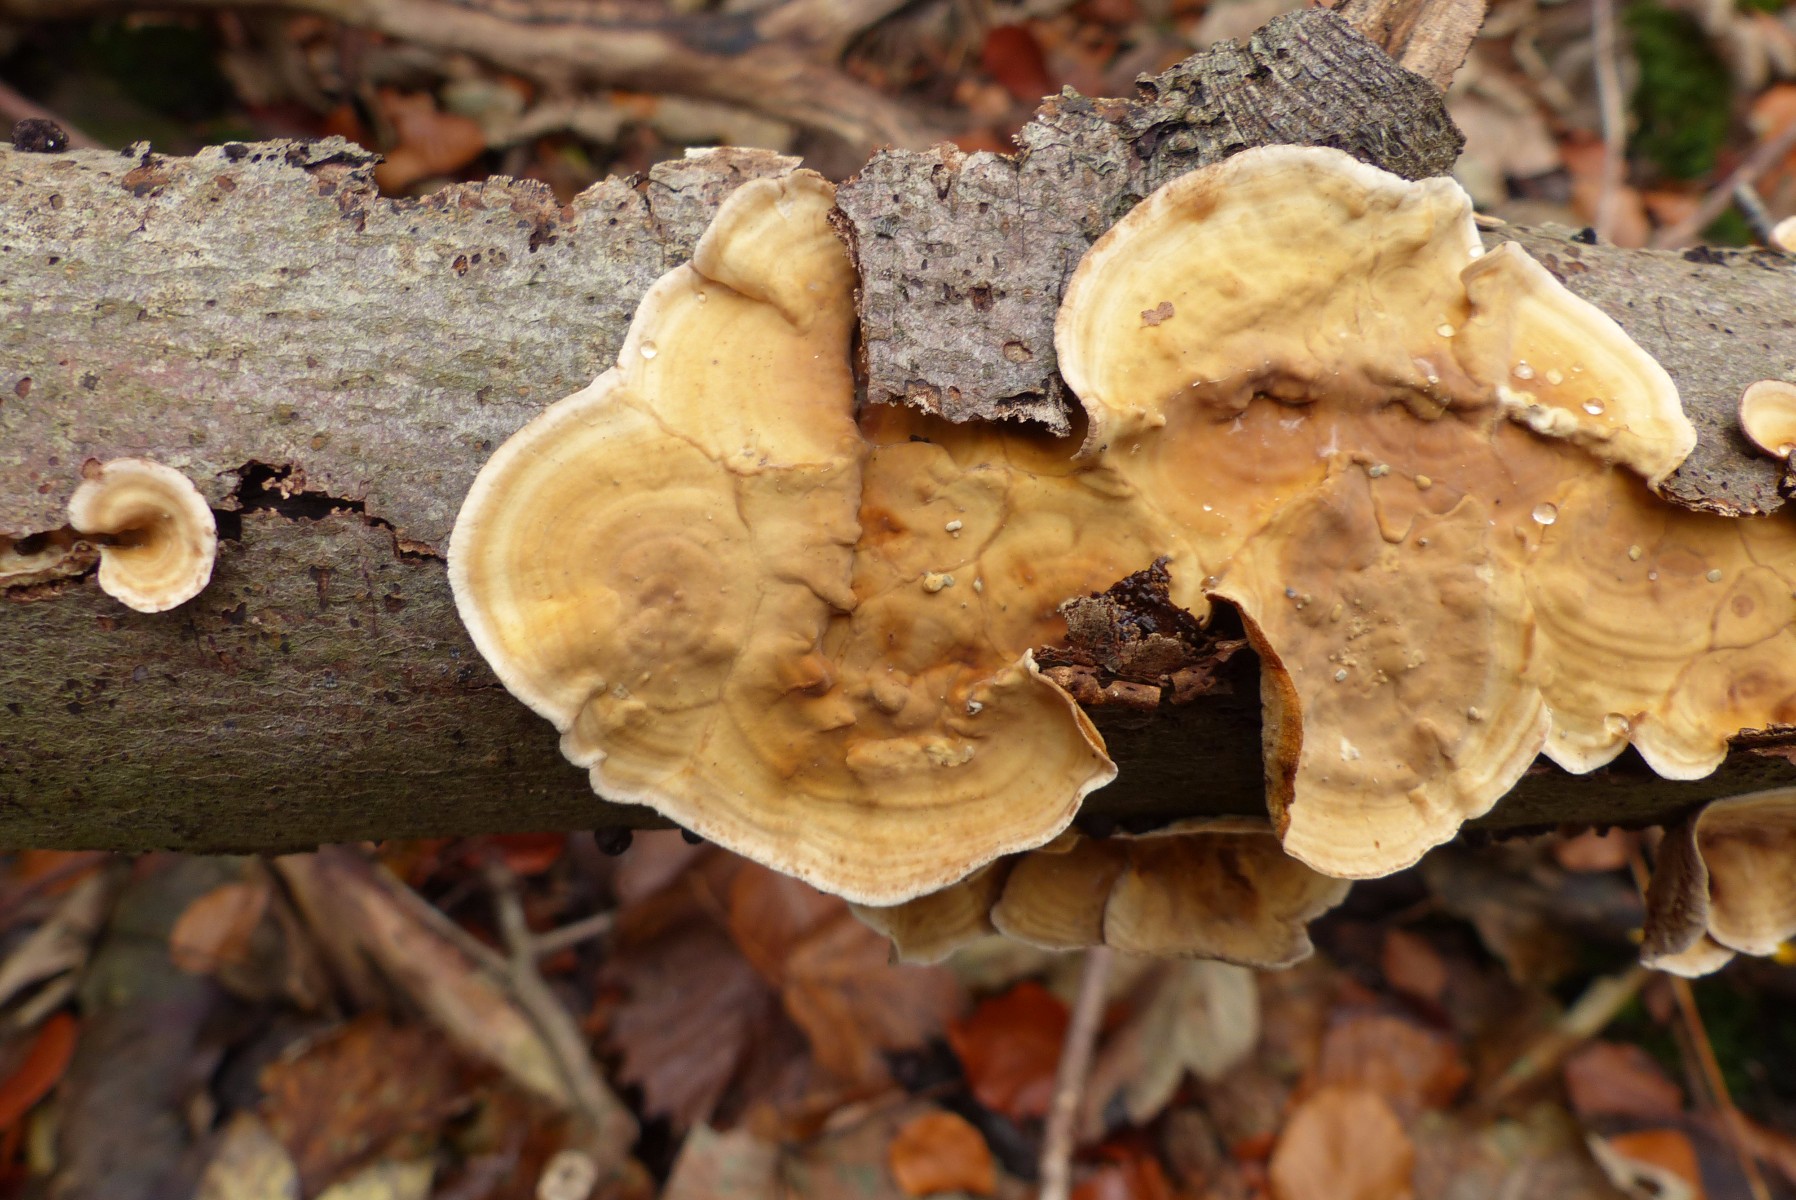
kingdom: Fungi
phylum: Basidiomycota
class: Agaricomycetes
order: Russulales
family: Stereaceae
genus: Stereum
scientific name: Stereum hirsutum
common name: håret lædersvamp
